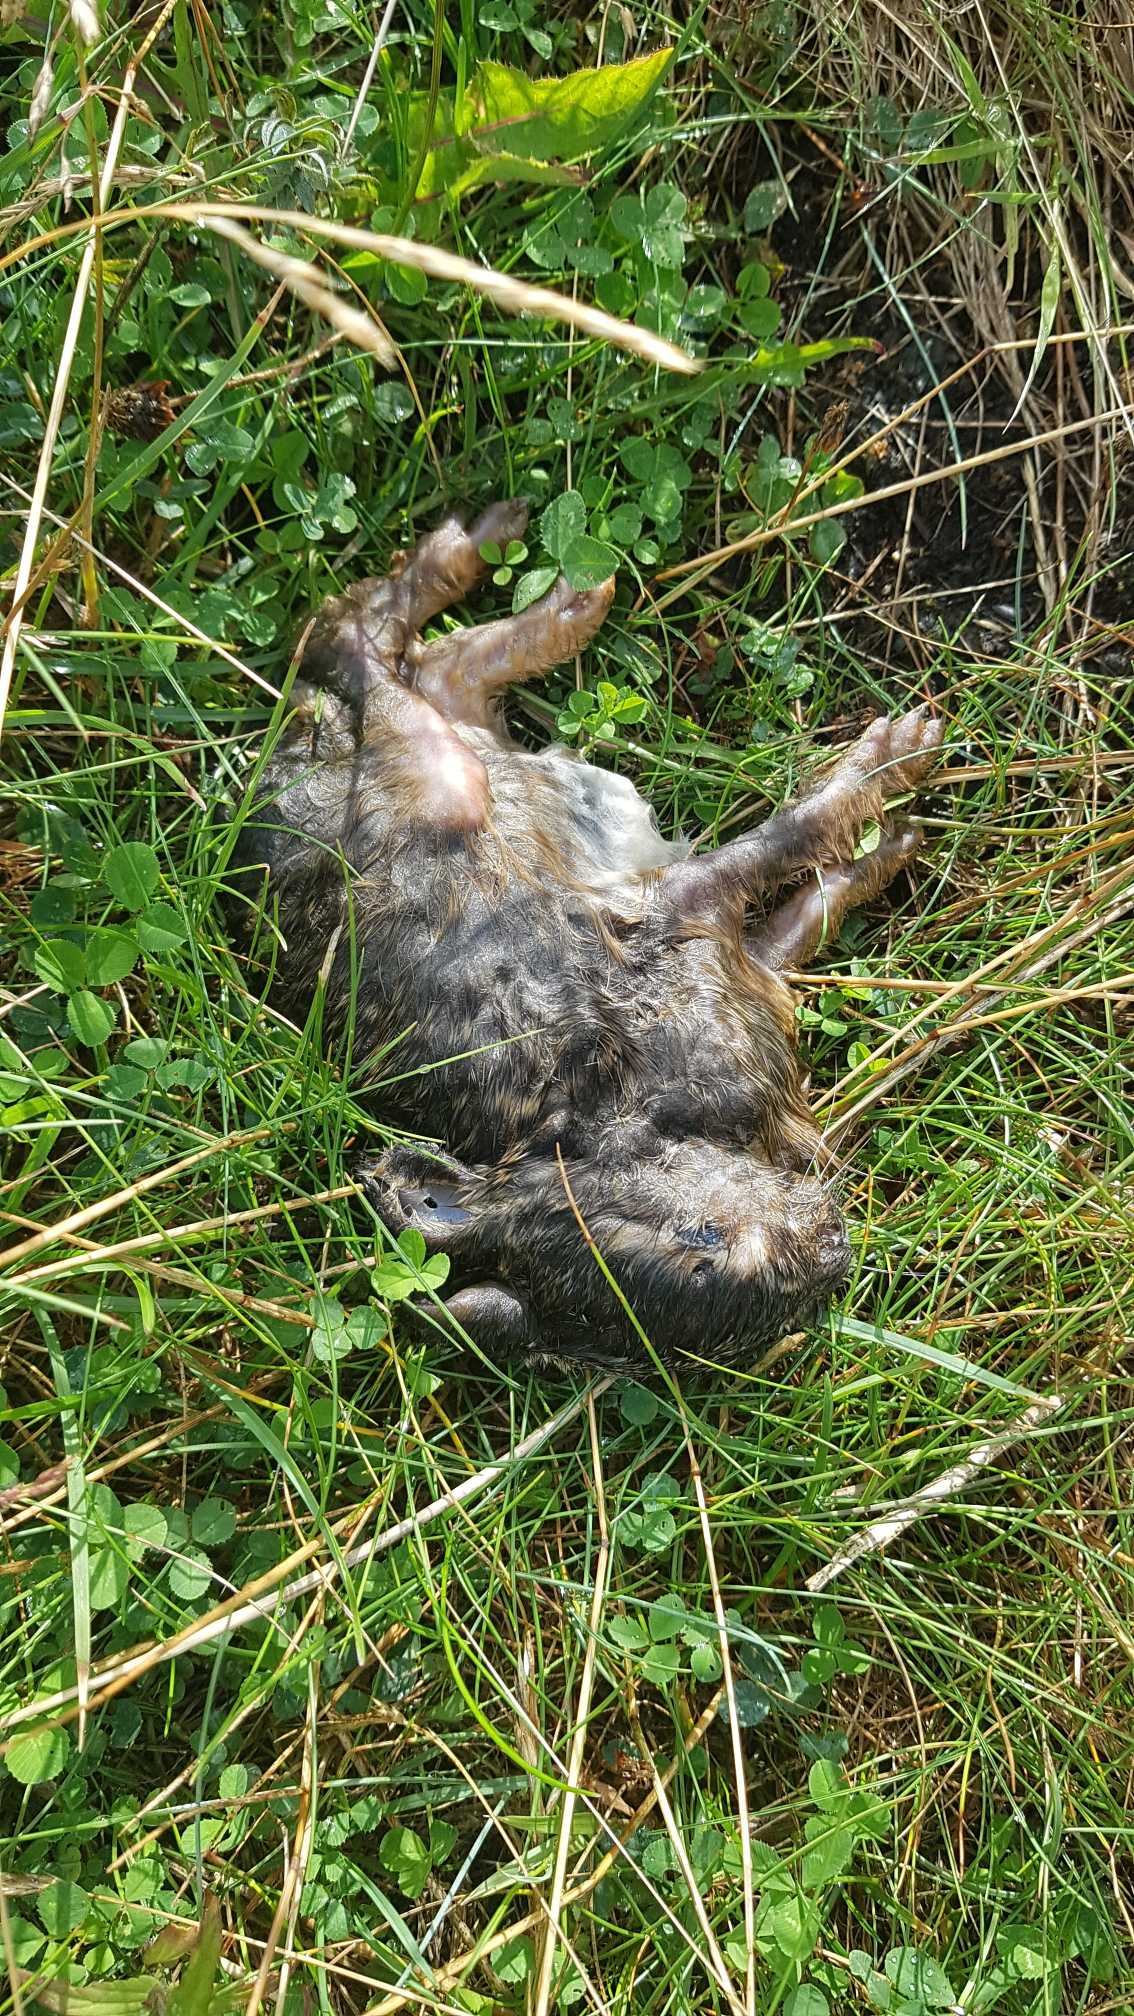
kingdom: Animalia
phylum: Chordata
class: Mammalia
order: Lagomorpha
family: Leporidae
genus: Lepus
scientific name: Lepus europaeus
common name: Hare
